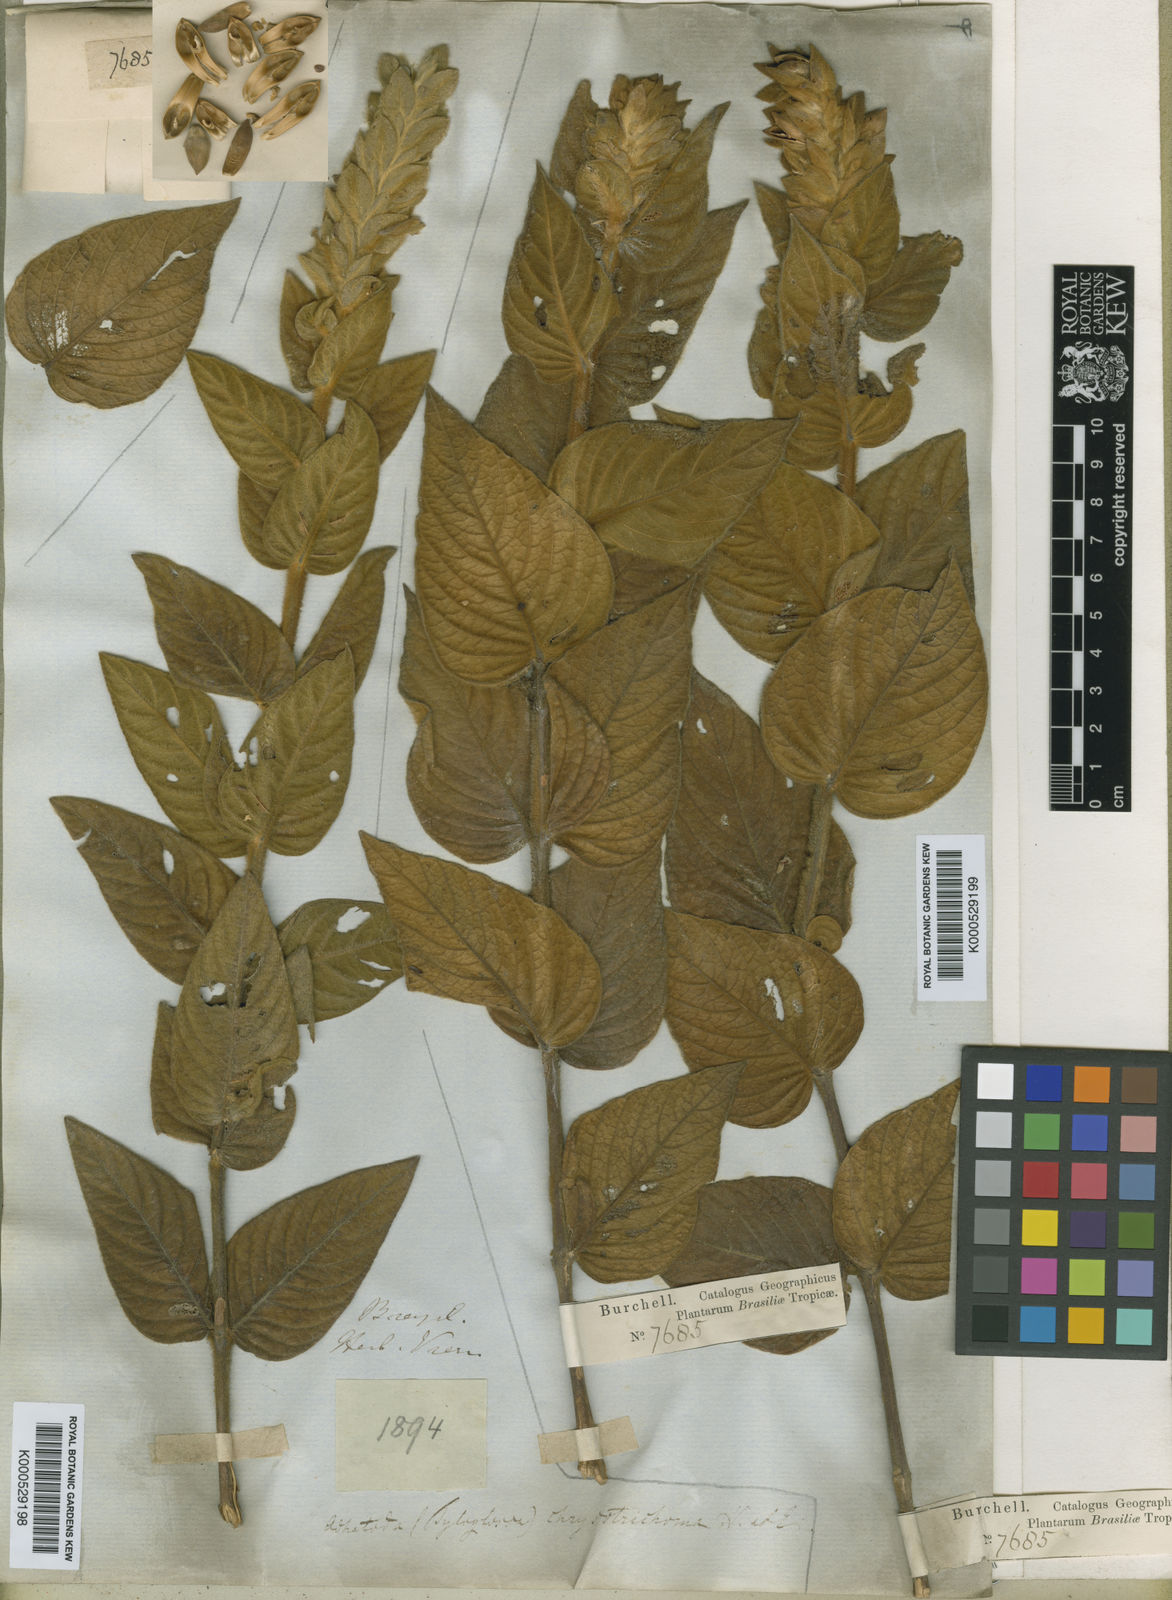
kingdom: Plantae
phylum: Tracheophyta
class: Magnoliopsida
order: Lamiales
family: Acanthaceae
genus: Justicia
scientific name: Justicia
